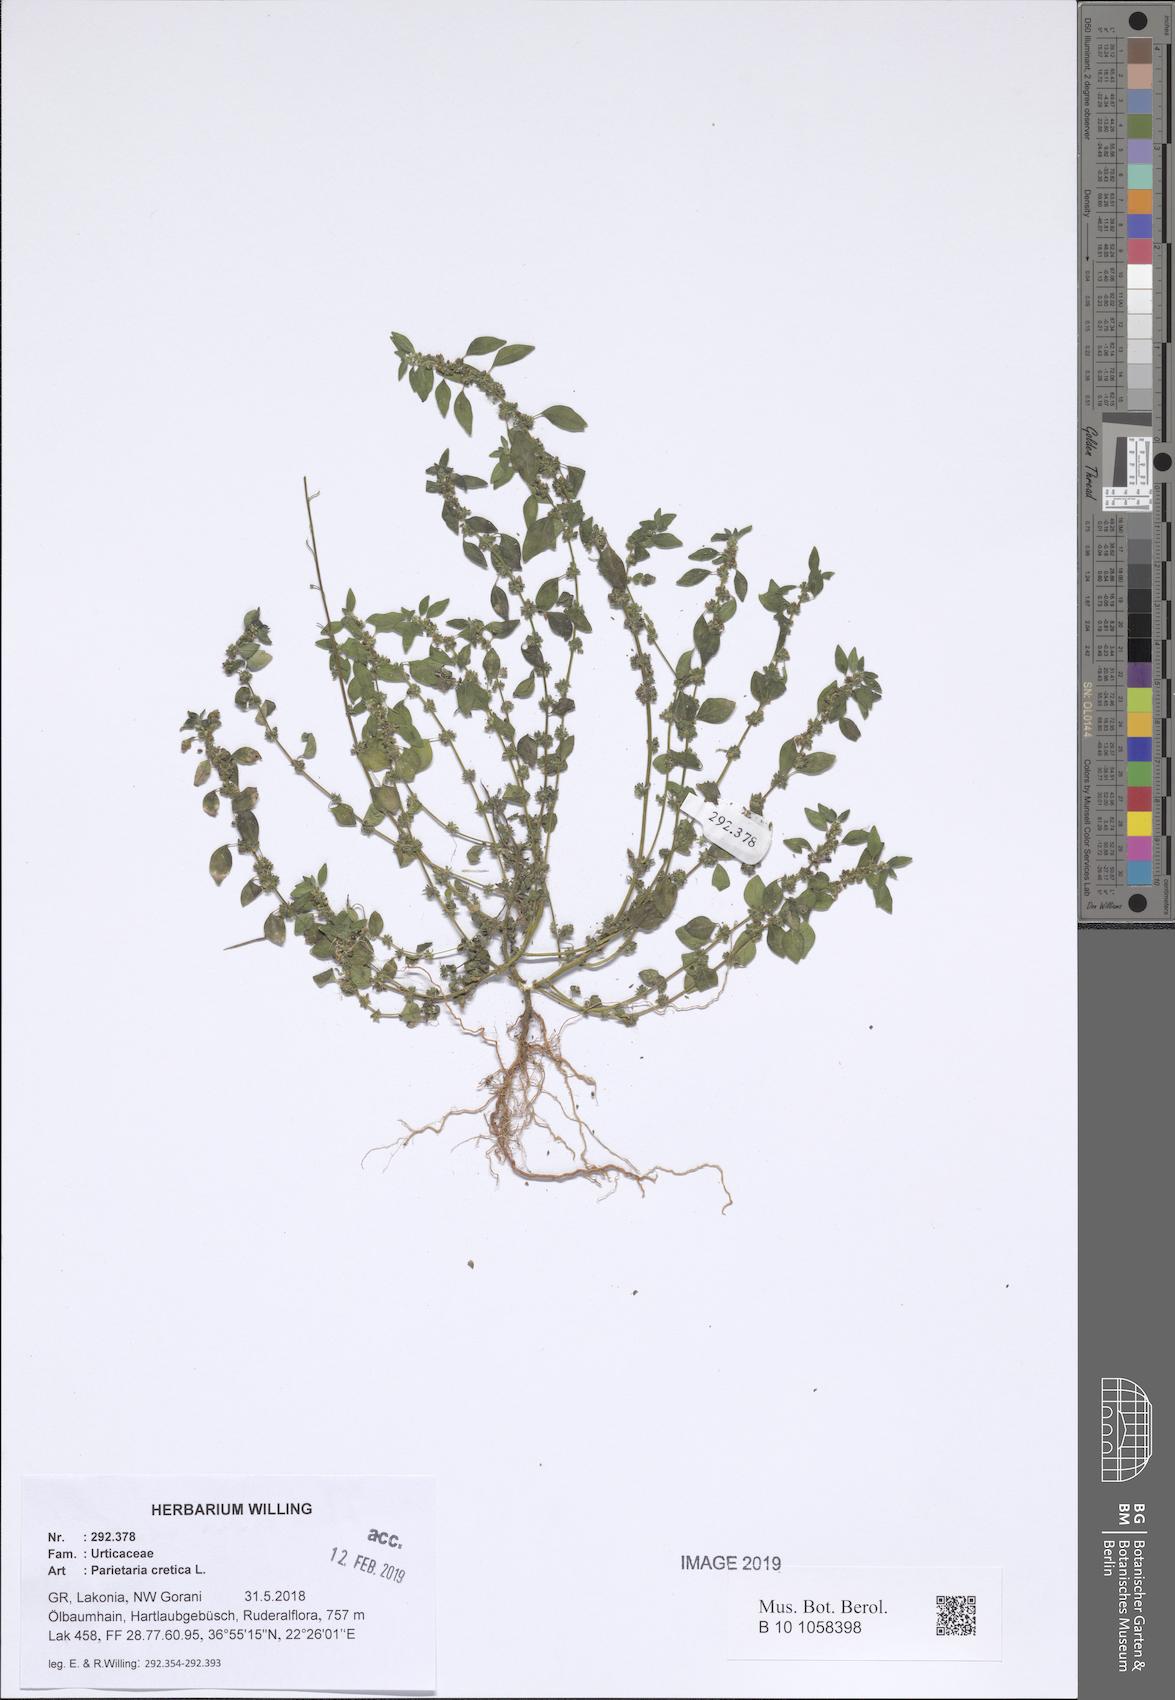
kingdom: Plantae
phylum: Tracheophyta
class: Magnoliopsida
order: Rosales
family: Urticaceae
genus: Parietaria
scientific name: Parietaria cretica
